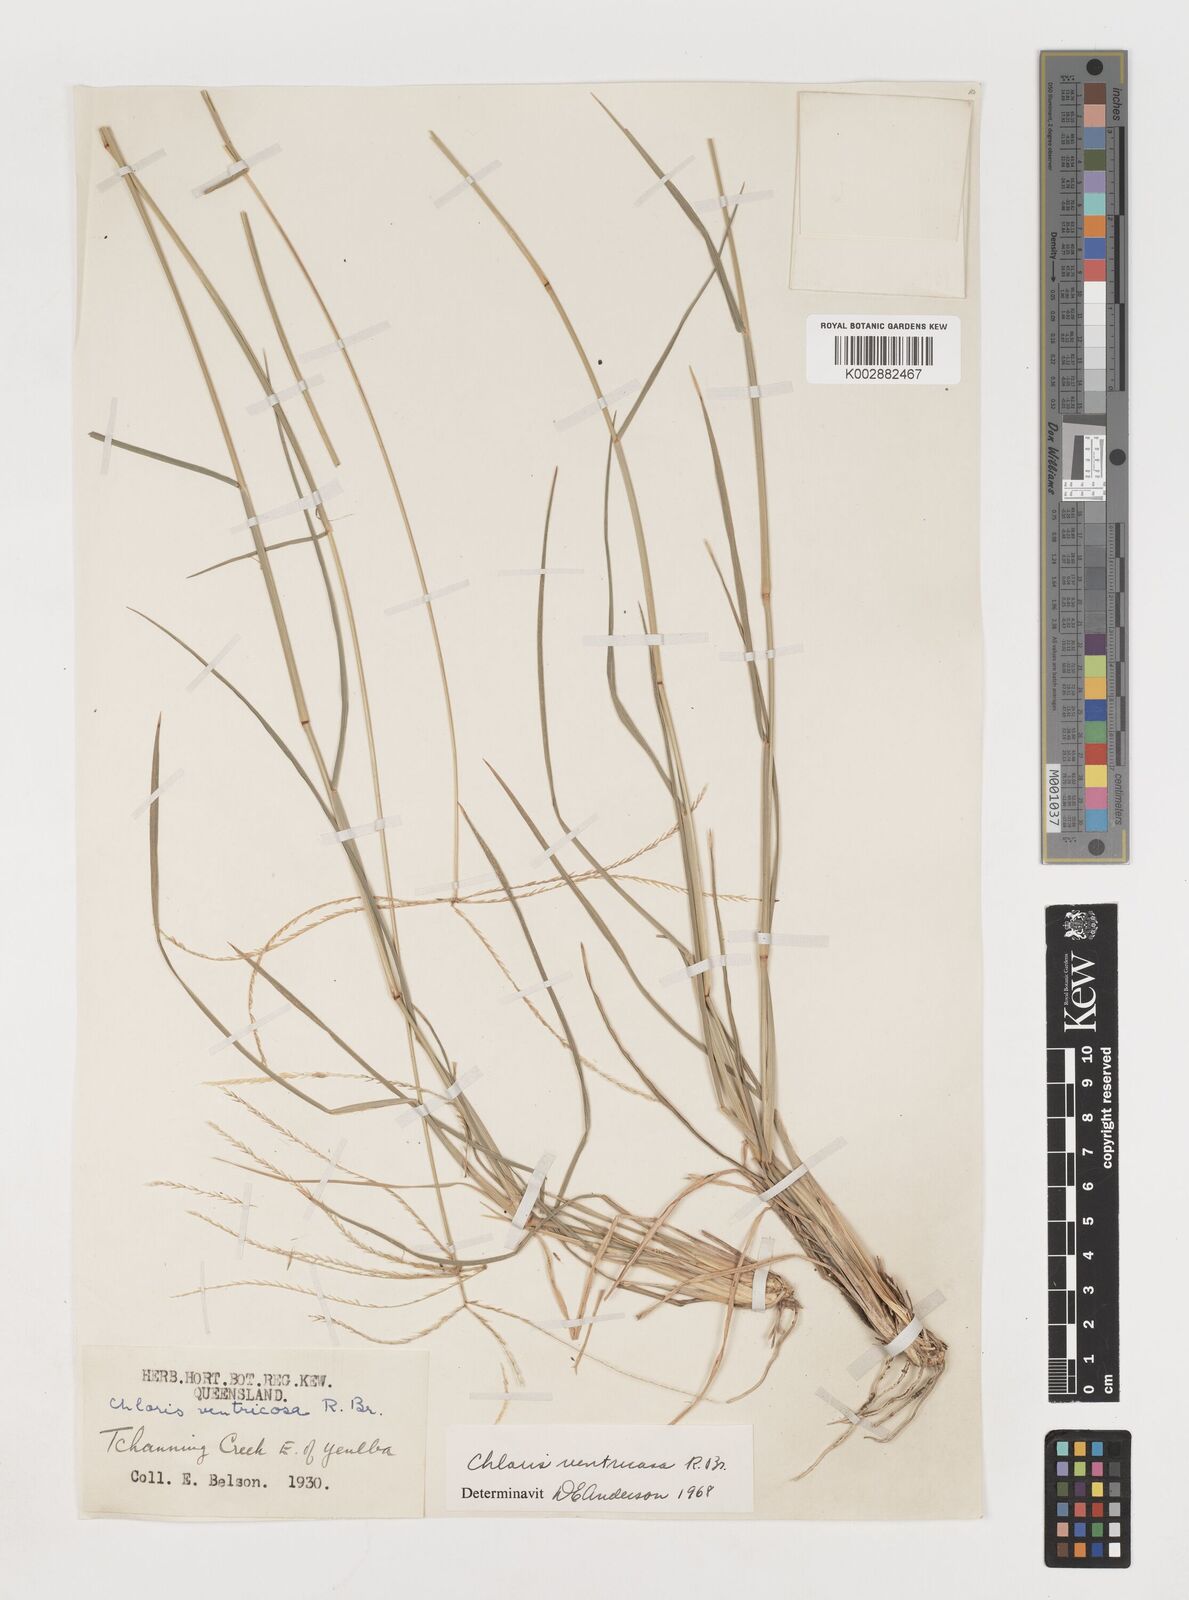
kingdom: Plantae
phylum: Tracheophyta
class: Liliopsida
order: Poales
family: Poaceae
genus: Chloris
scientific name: Chloris ventricosa
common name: Australian windmill grass
